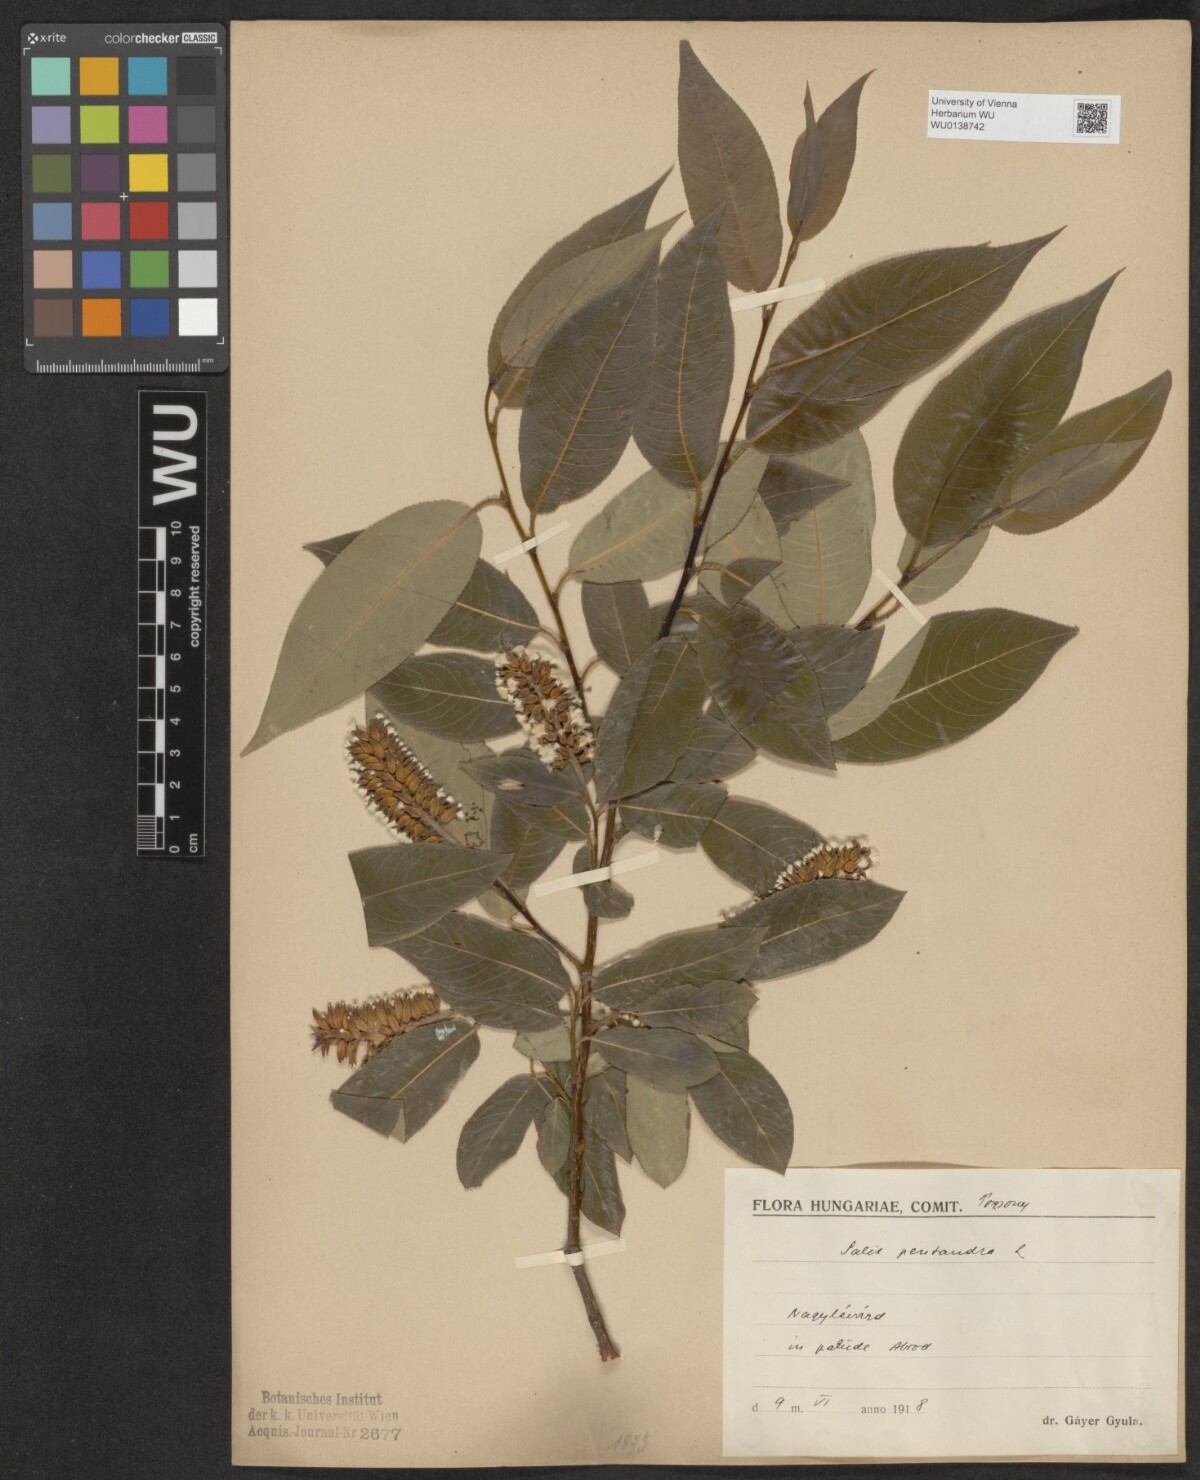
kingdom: Plantae
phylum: Tracheophyta
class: Magnoliopsida
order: Malpighiales
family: Salicaceae
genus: Salix
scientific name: Salix pentandra
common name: Bay willow
